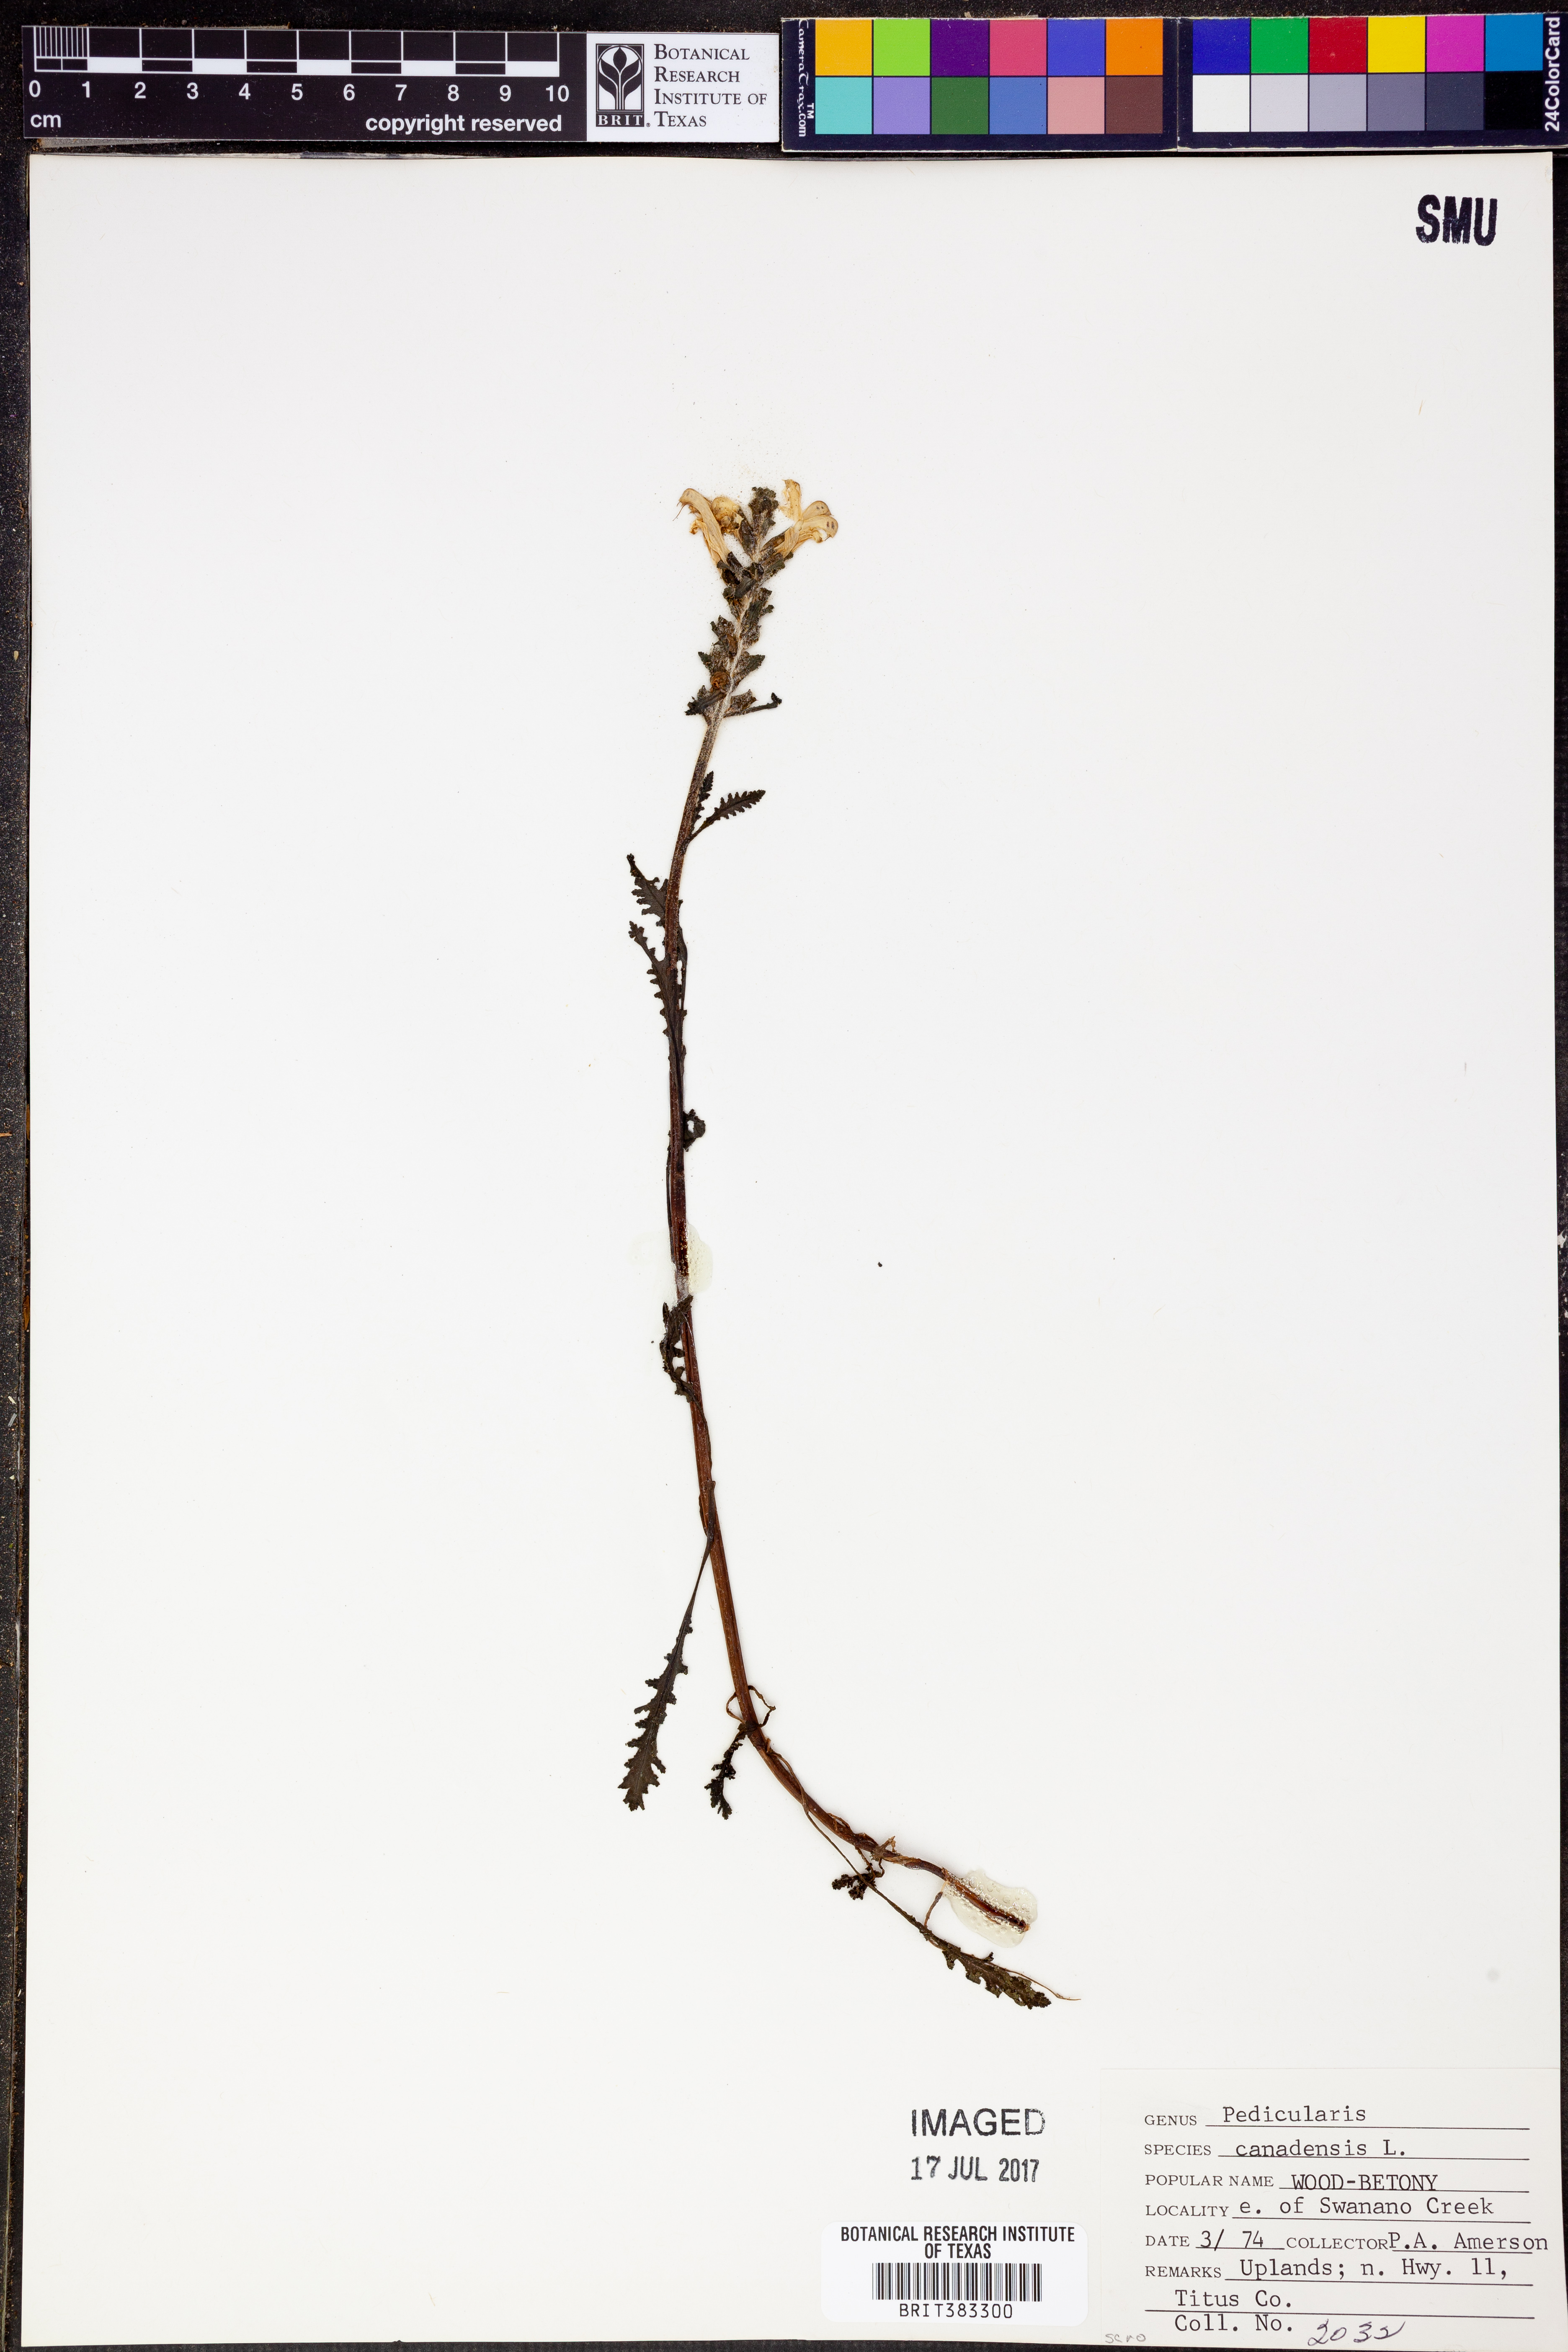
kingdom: Plantae
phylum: Tracheophyta
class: Magnoliopsida
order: Lamiales
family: Orobanchaceae
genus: Pedicularis
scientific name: Pedicularis canadensis
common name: Early lousewort
